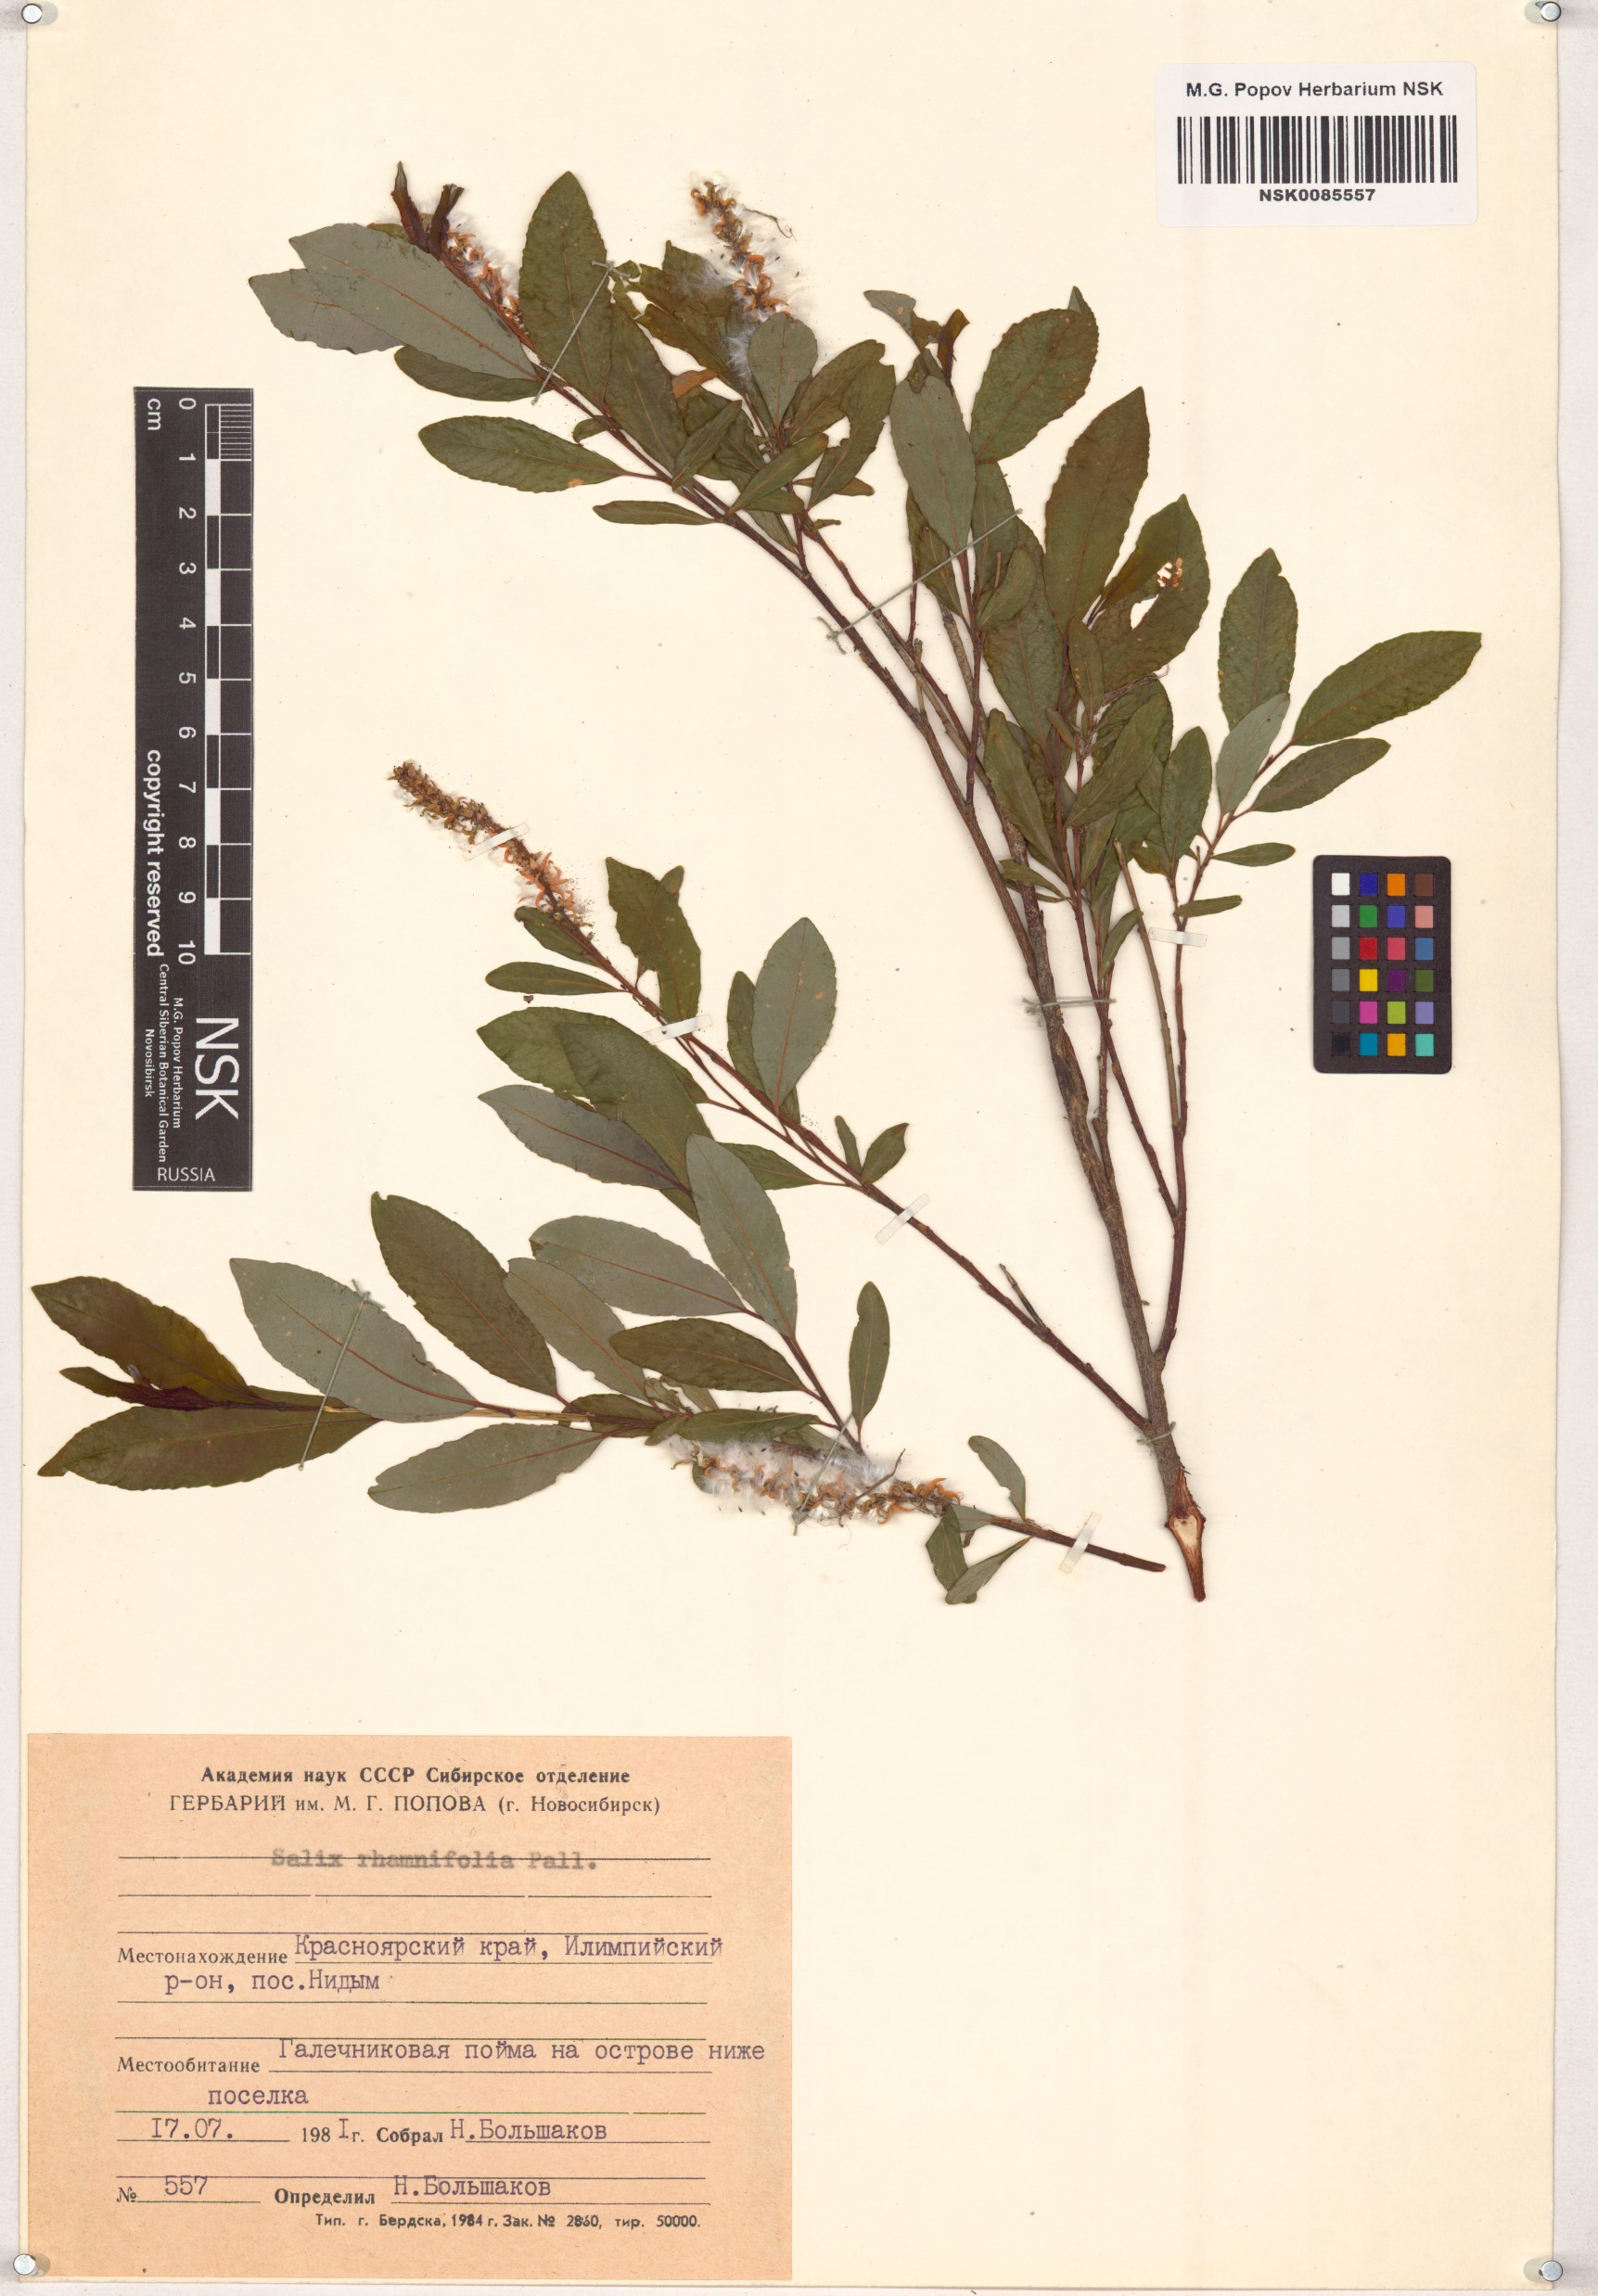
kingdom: Plantae
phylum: Tracheophyta
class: Magnoliopsida
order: Malpighiales
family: Salicaceae
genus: Salix
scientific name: Salix rhamnifolia
